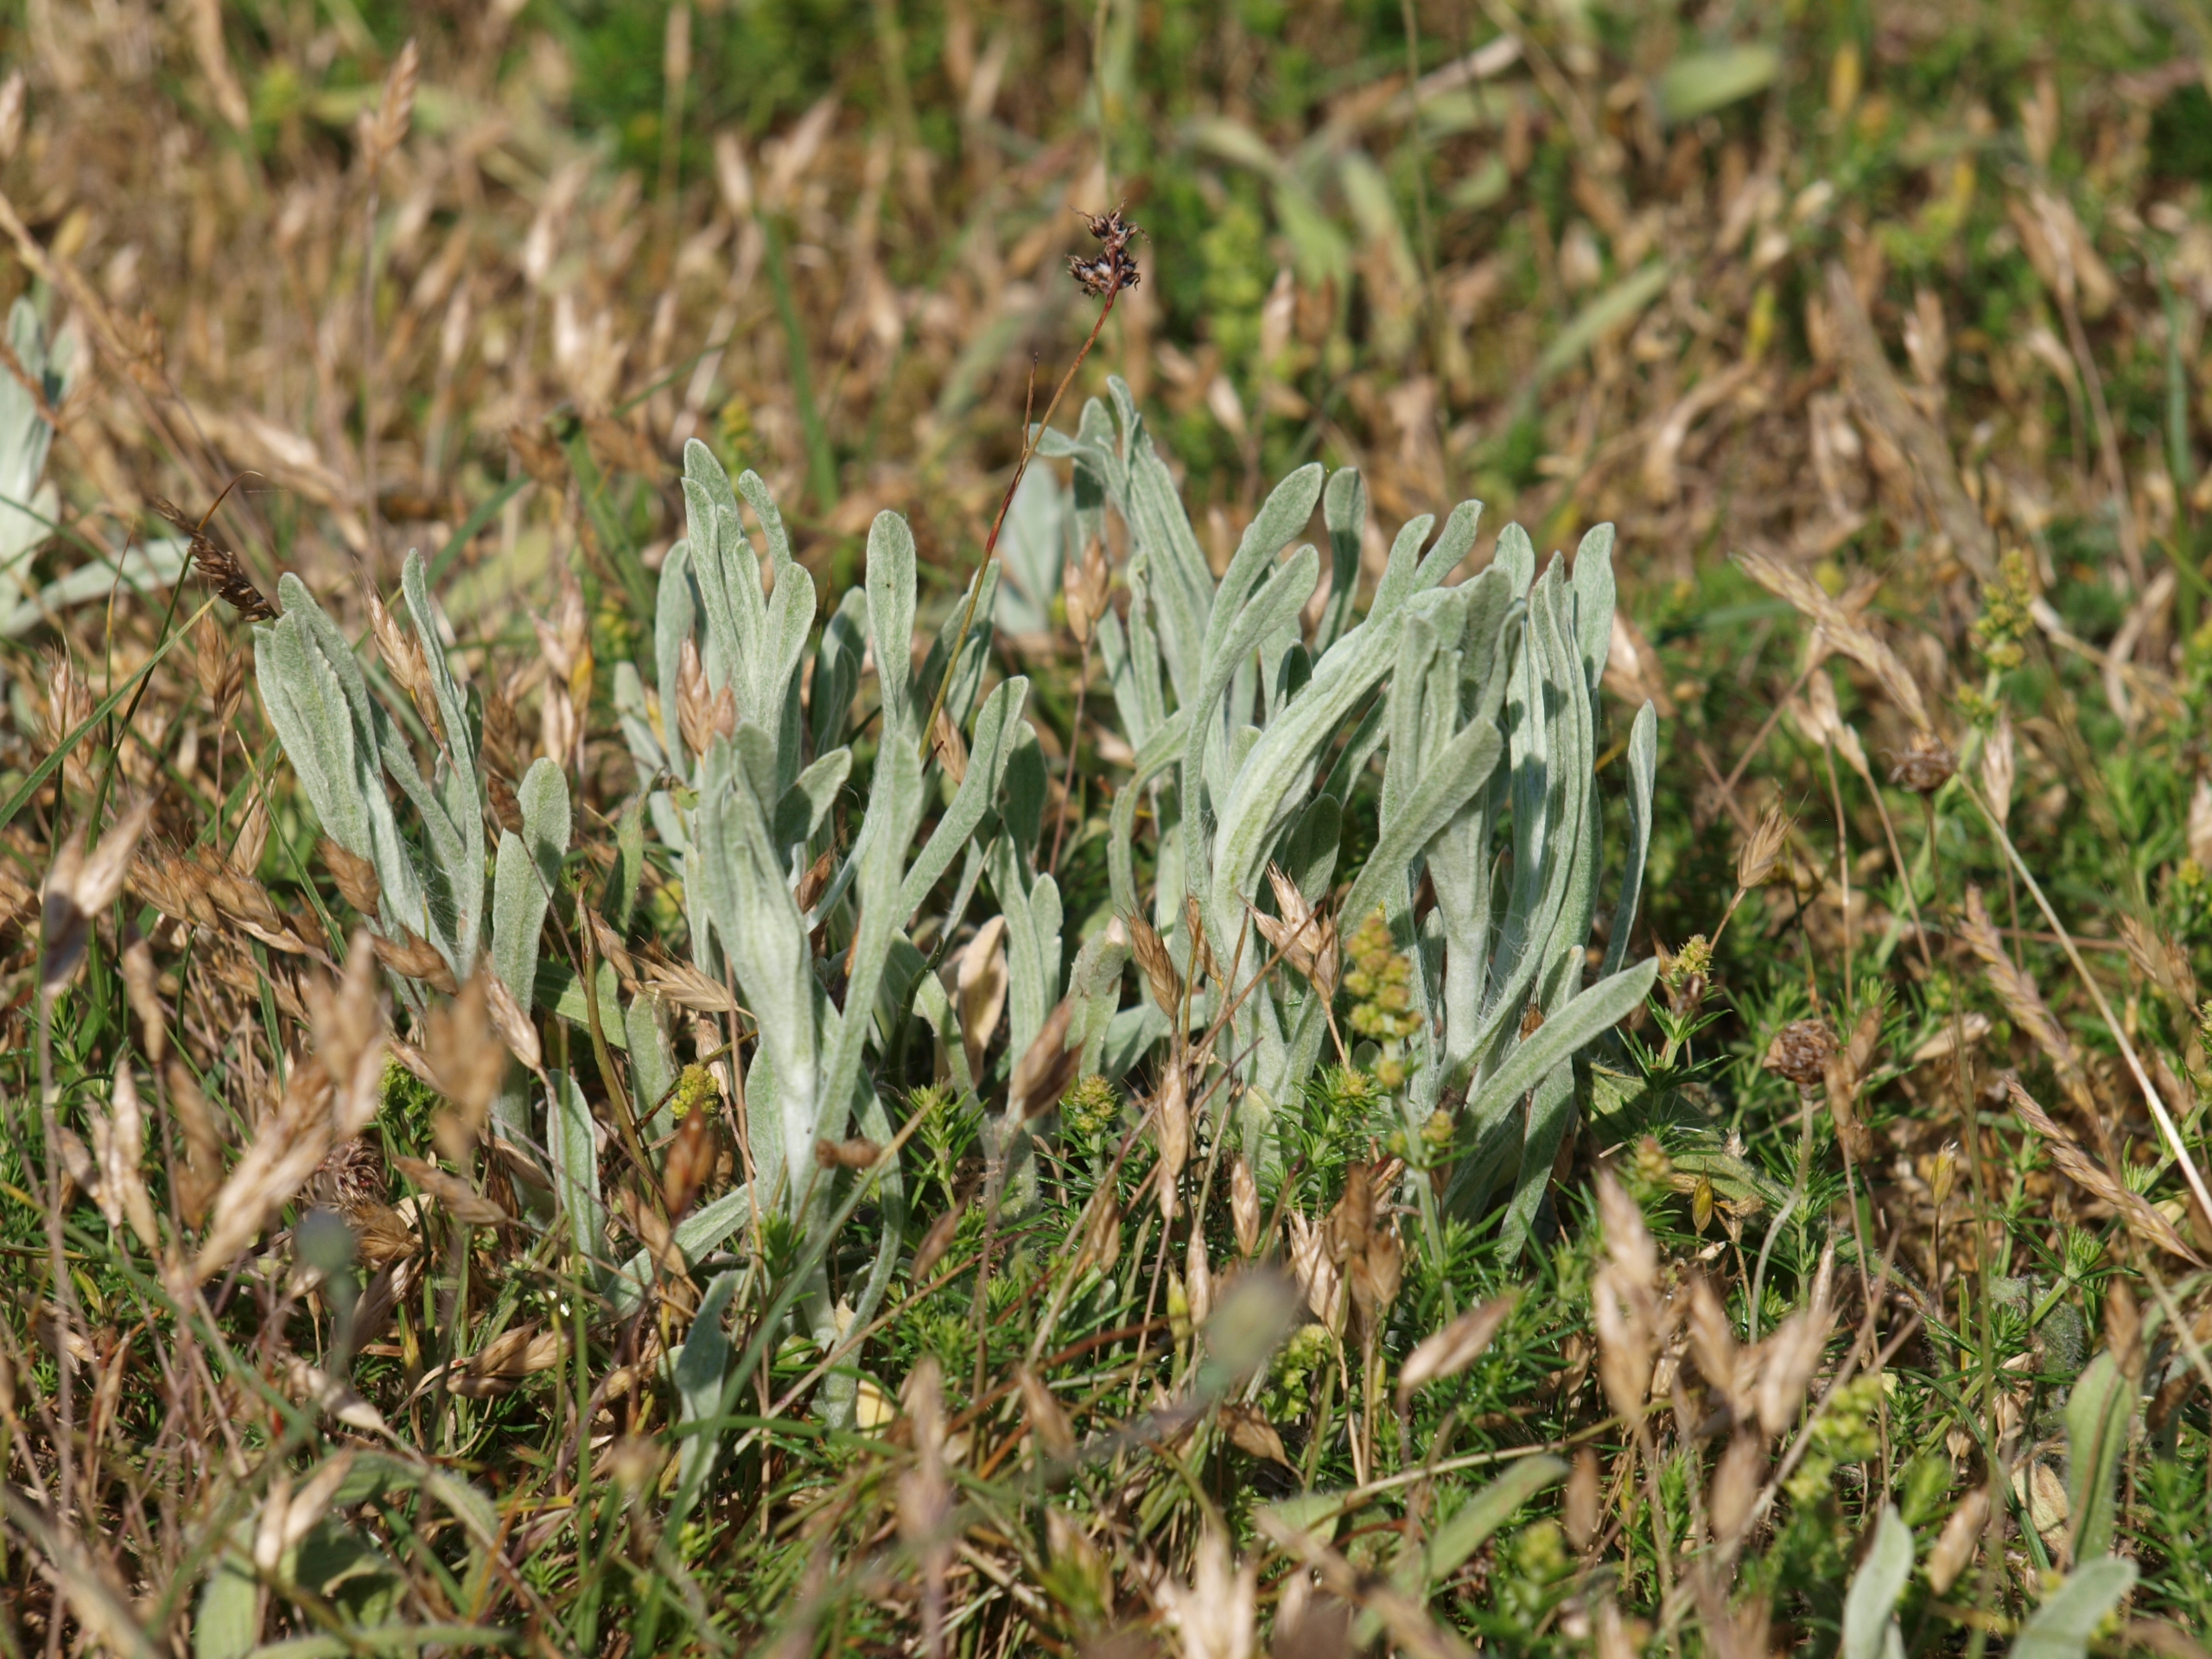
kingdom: Plantae
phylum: Tracheophyta
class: Magnoliopsida
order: Asterales
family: Asteraceae
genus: Helichrysum
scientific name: Helichrysum arenarium
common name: Gul evighedsblomst
